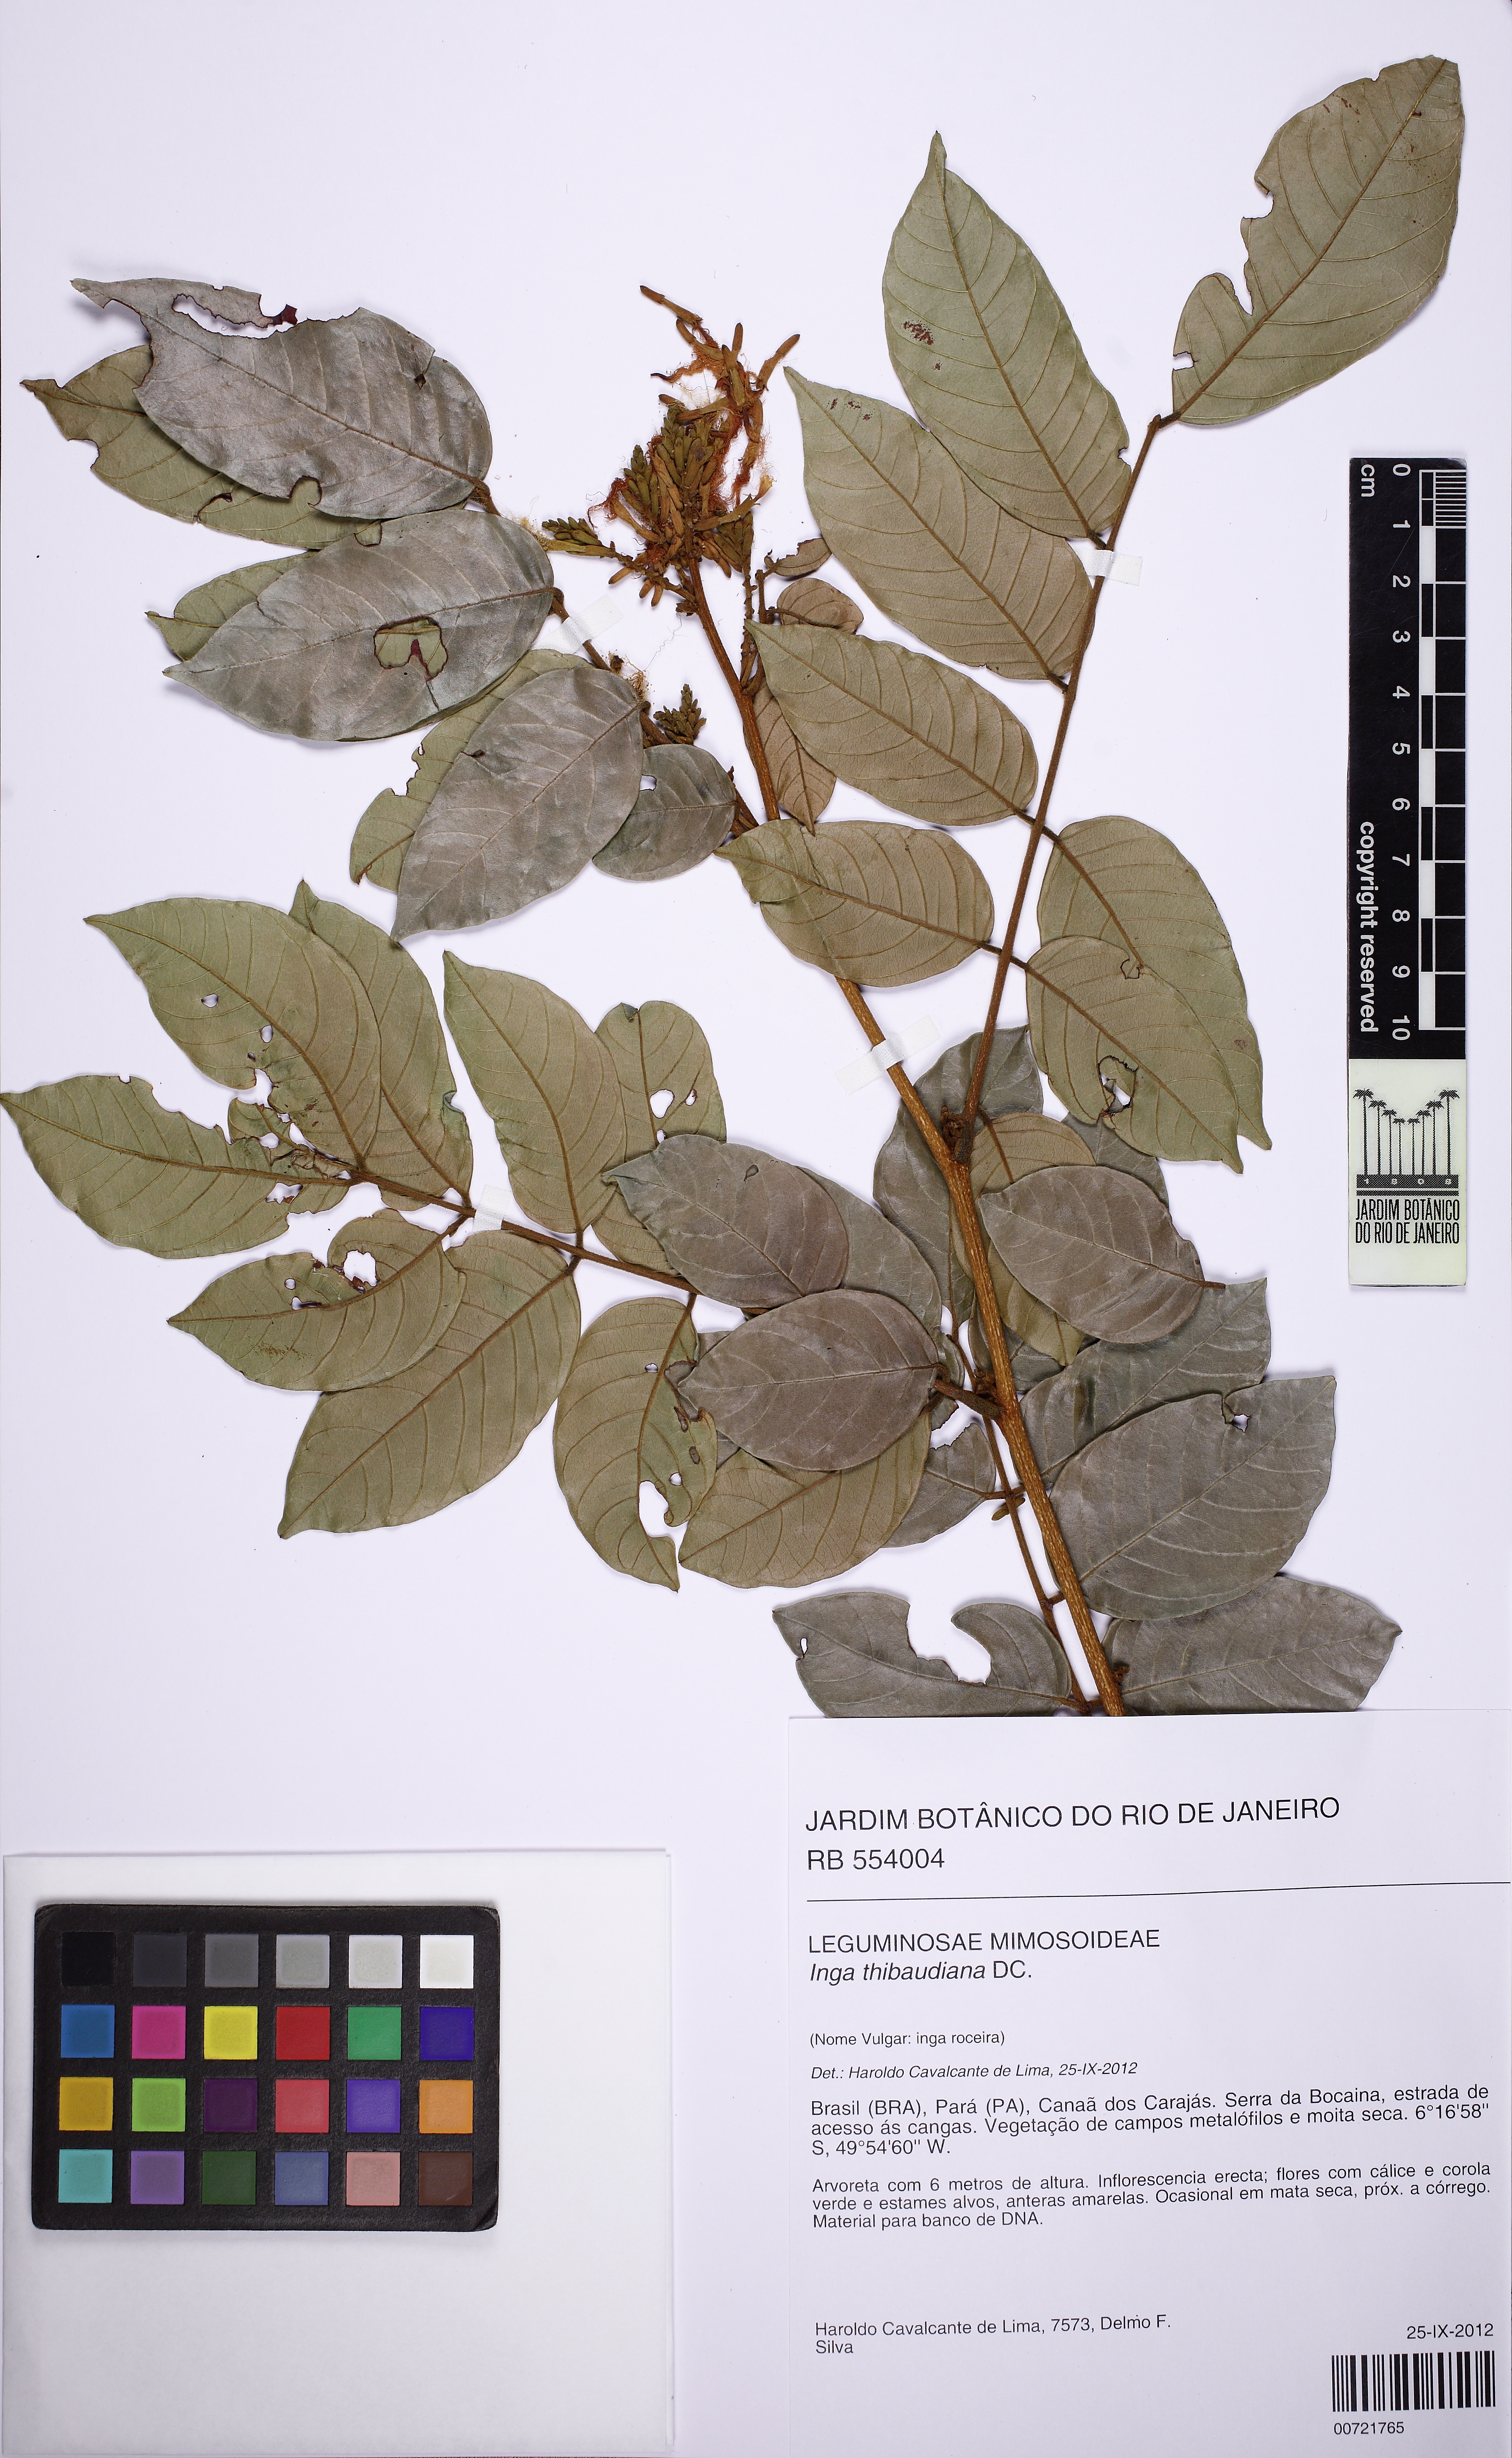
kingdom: Plantae
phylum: Tracheophyta
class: Magnoliopsida
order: Fabales
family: Fabaceae
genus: Inga
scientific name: Inga thibaudiana
